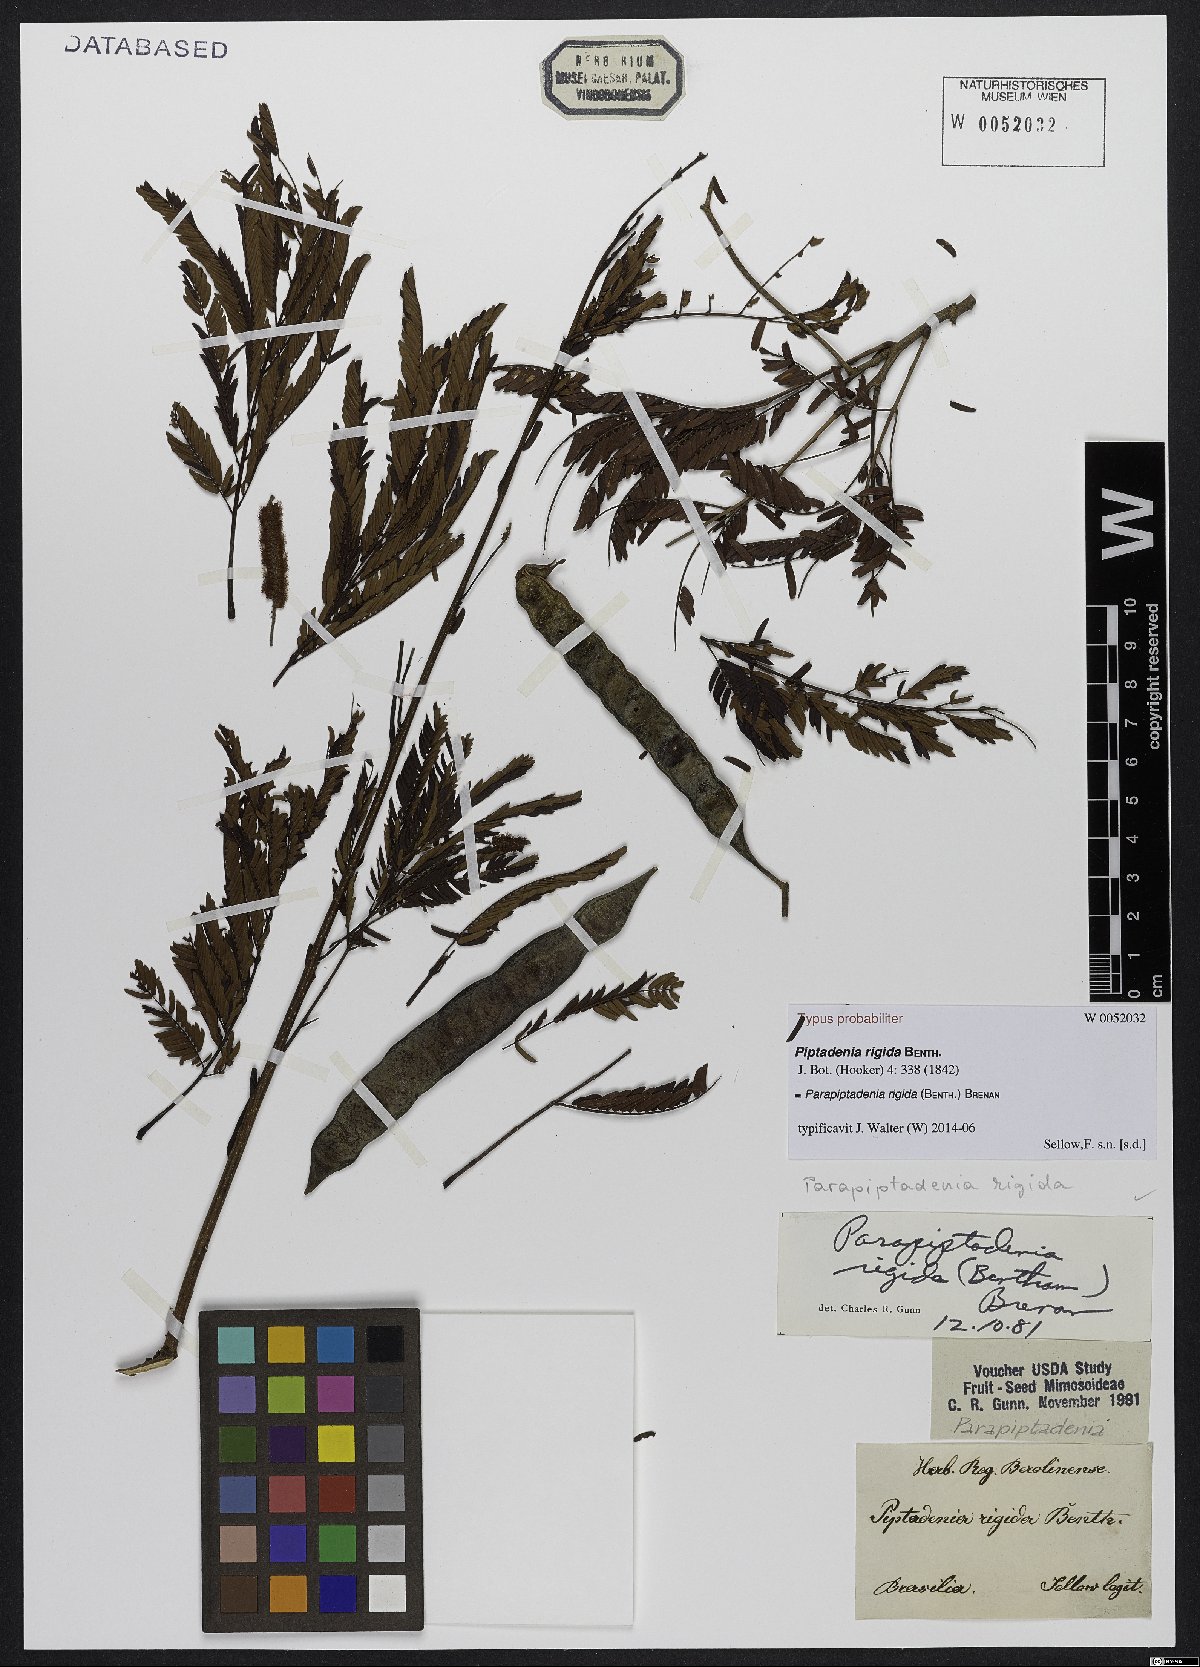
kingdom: Plantae
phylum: Tracheophyta
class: Magnoliopsida
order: Fabales
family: Fabaceae
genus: Parapiptadenia
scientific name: Parapiptadenia rigida
